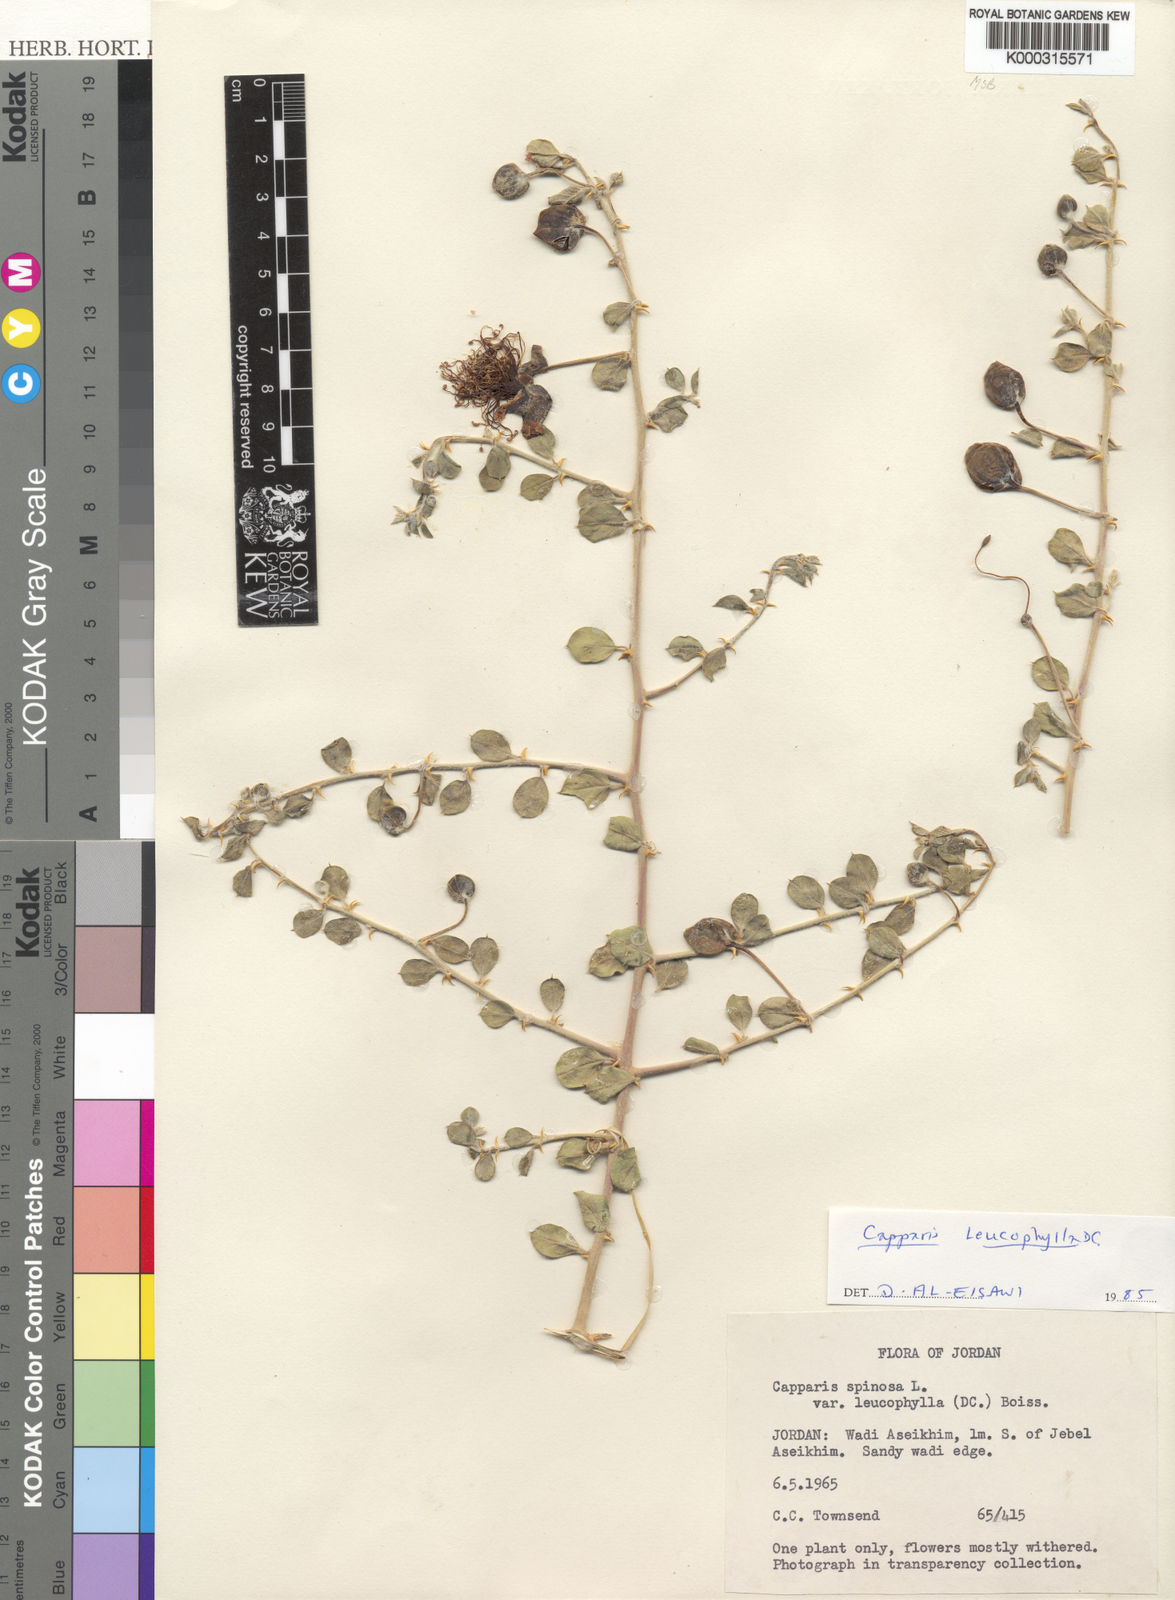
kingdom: Plantae
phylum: Tracheophyta
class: Magnoliopsida
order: Brassicales
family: Capparaceae
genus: Capparis
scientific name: Capparis spinosa
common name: Caper
